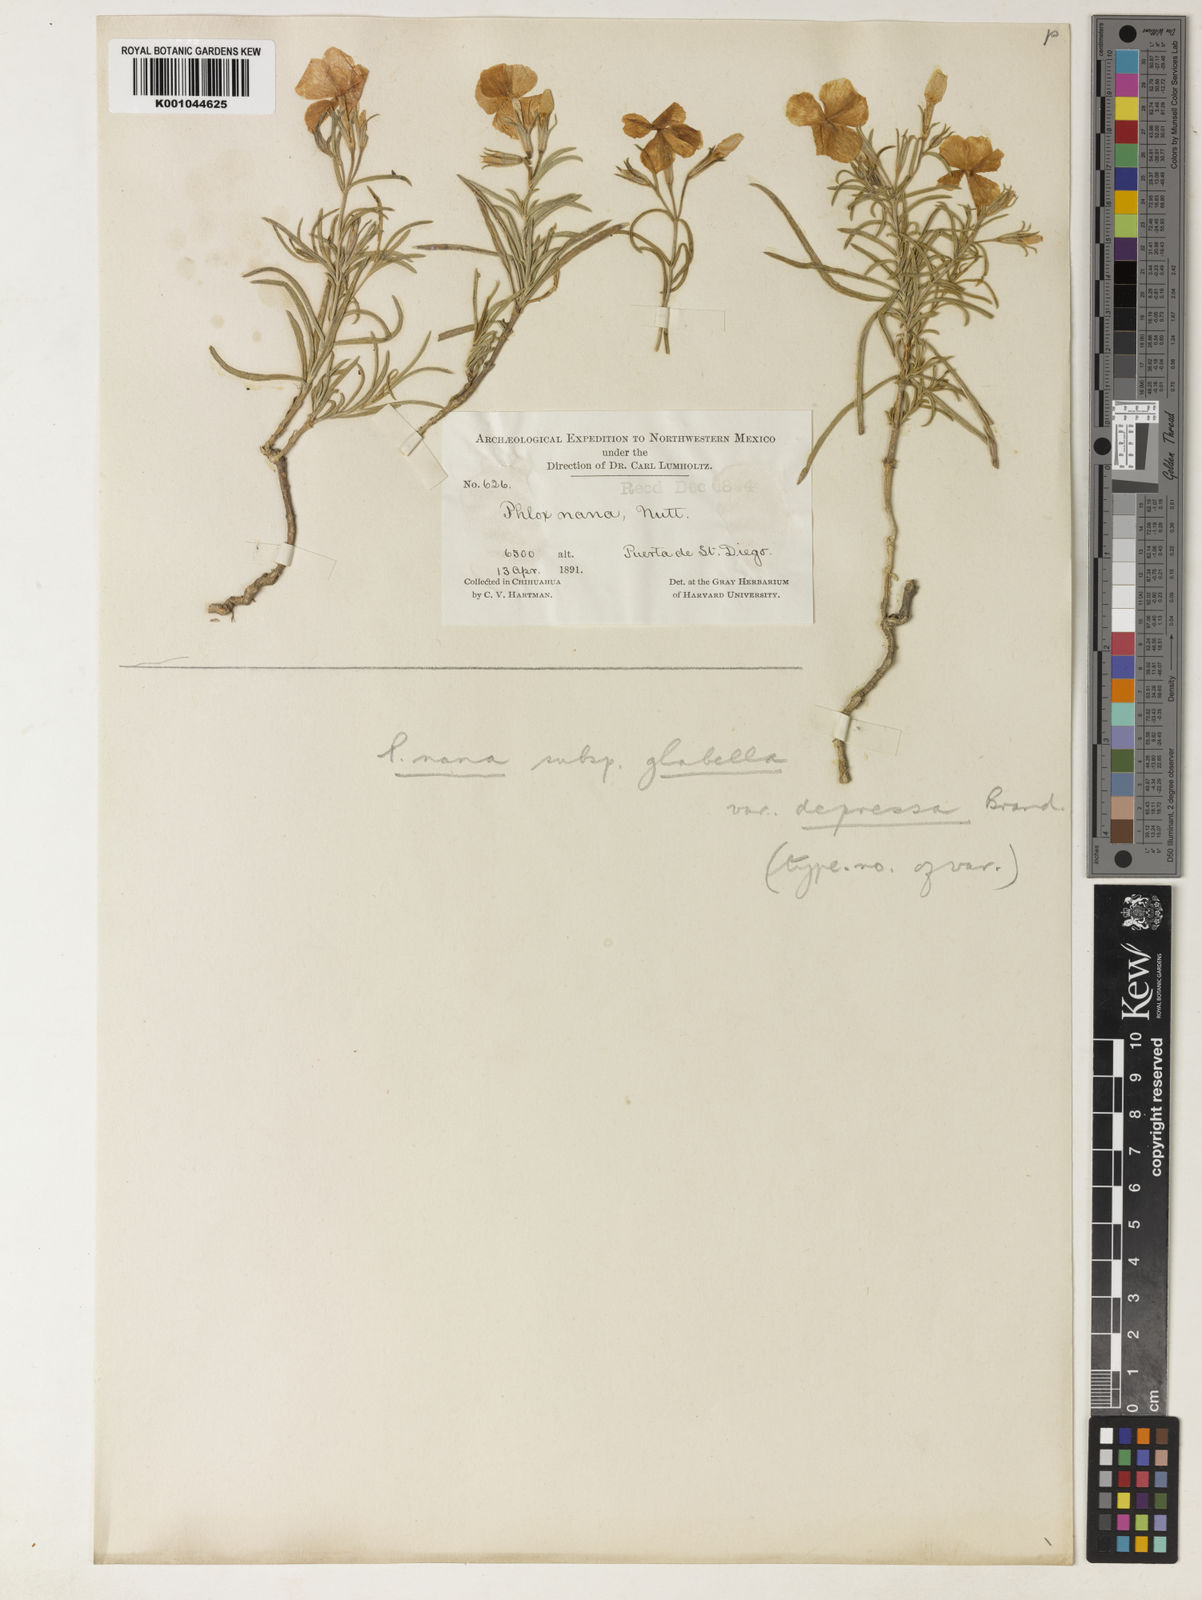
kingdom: Plantae
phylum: Tracheophyta
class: Magnoliopsida
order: Ericales
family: Polemoniaceae
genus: Phlox
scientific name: Phlox nana
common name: Santa fe phlox
